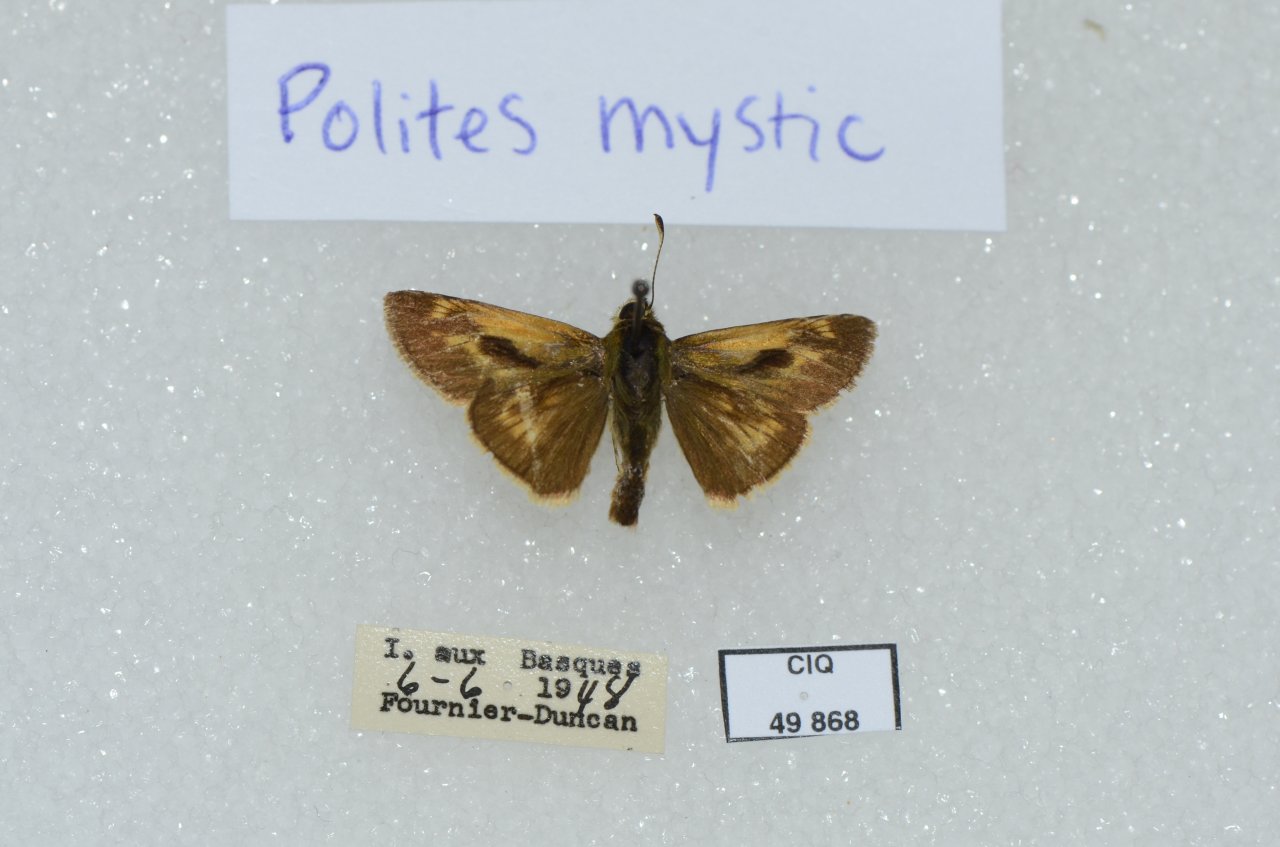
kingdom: Animalia
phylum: Arthropoda
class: Insecta
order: Lepidoptera
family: Hesperiidae
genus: Polites
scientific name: Polites
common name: Long Dash Skipper
